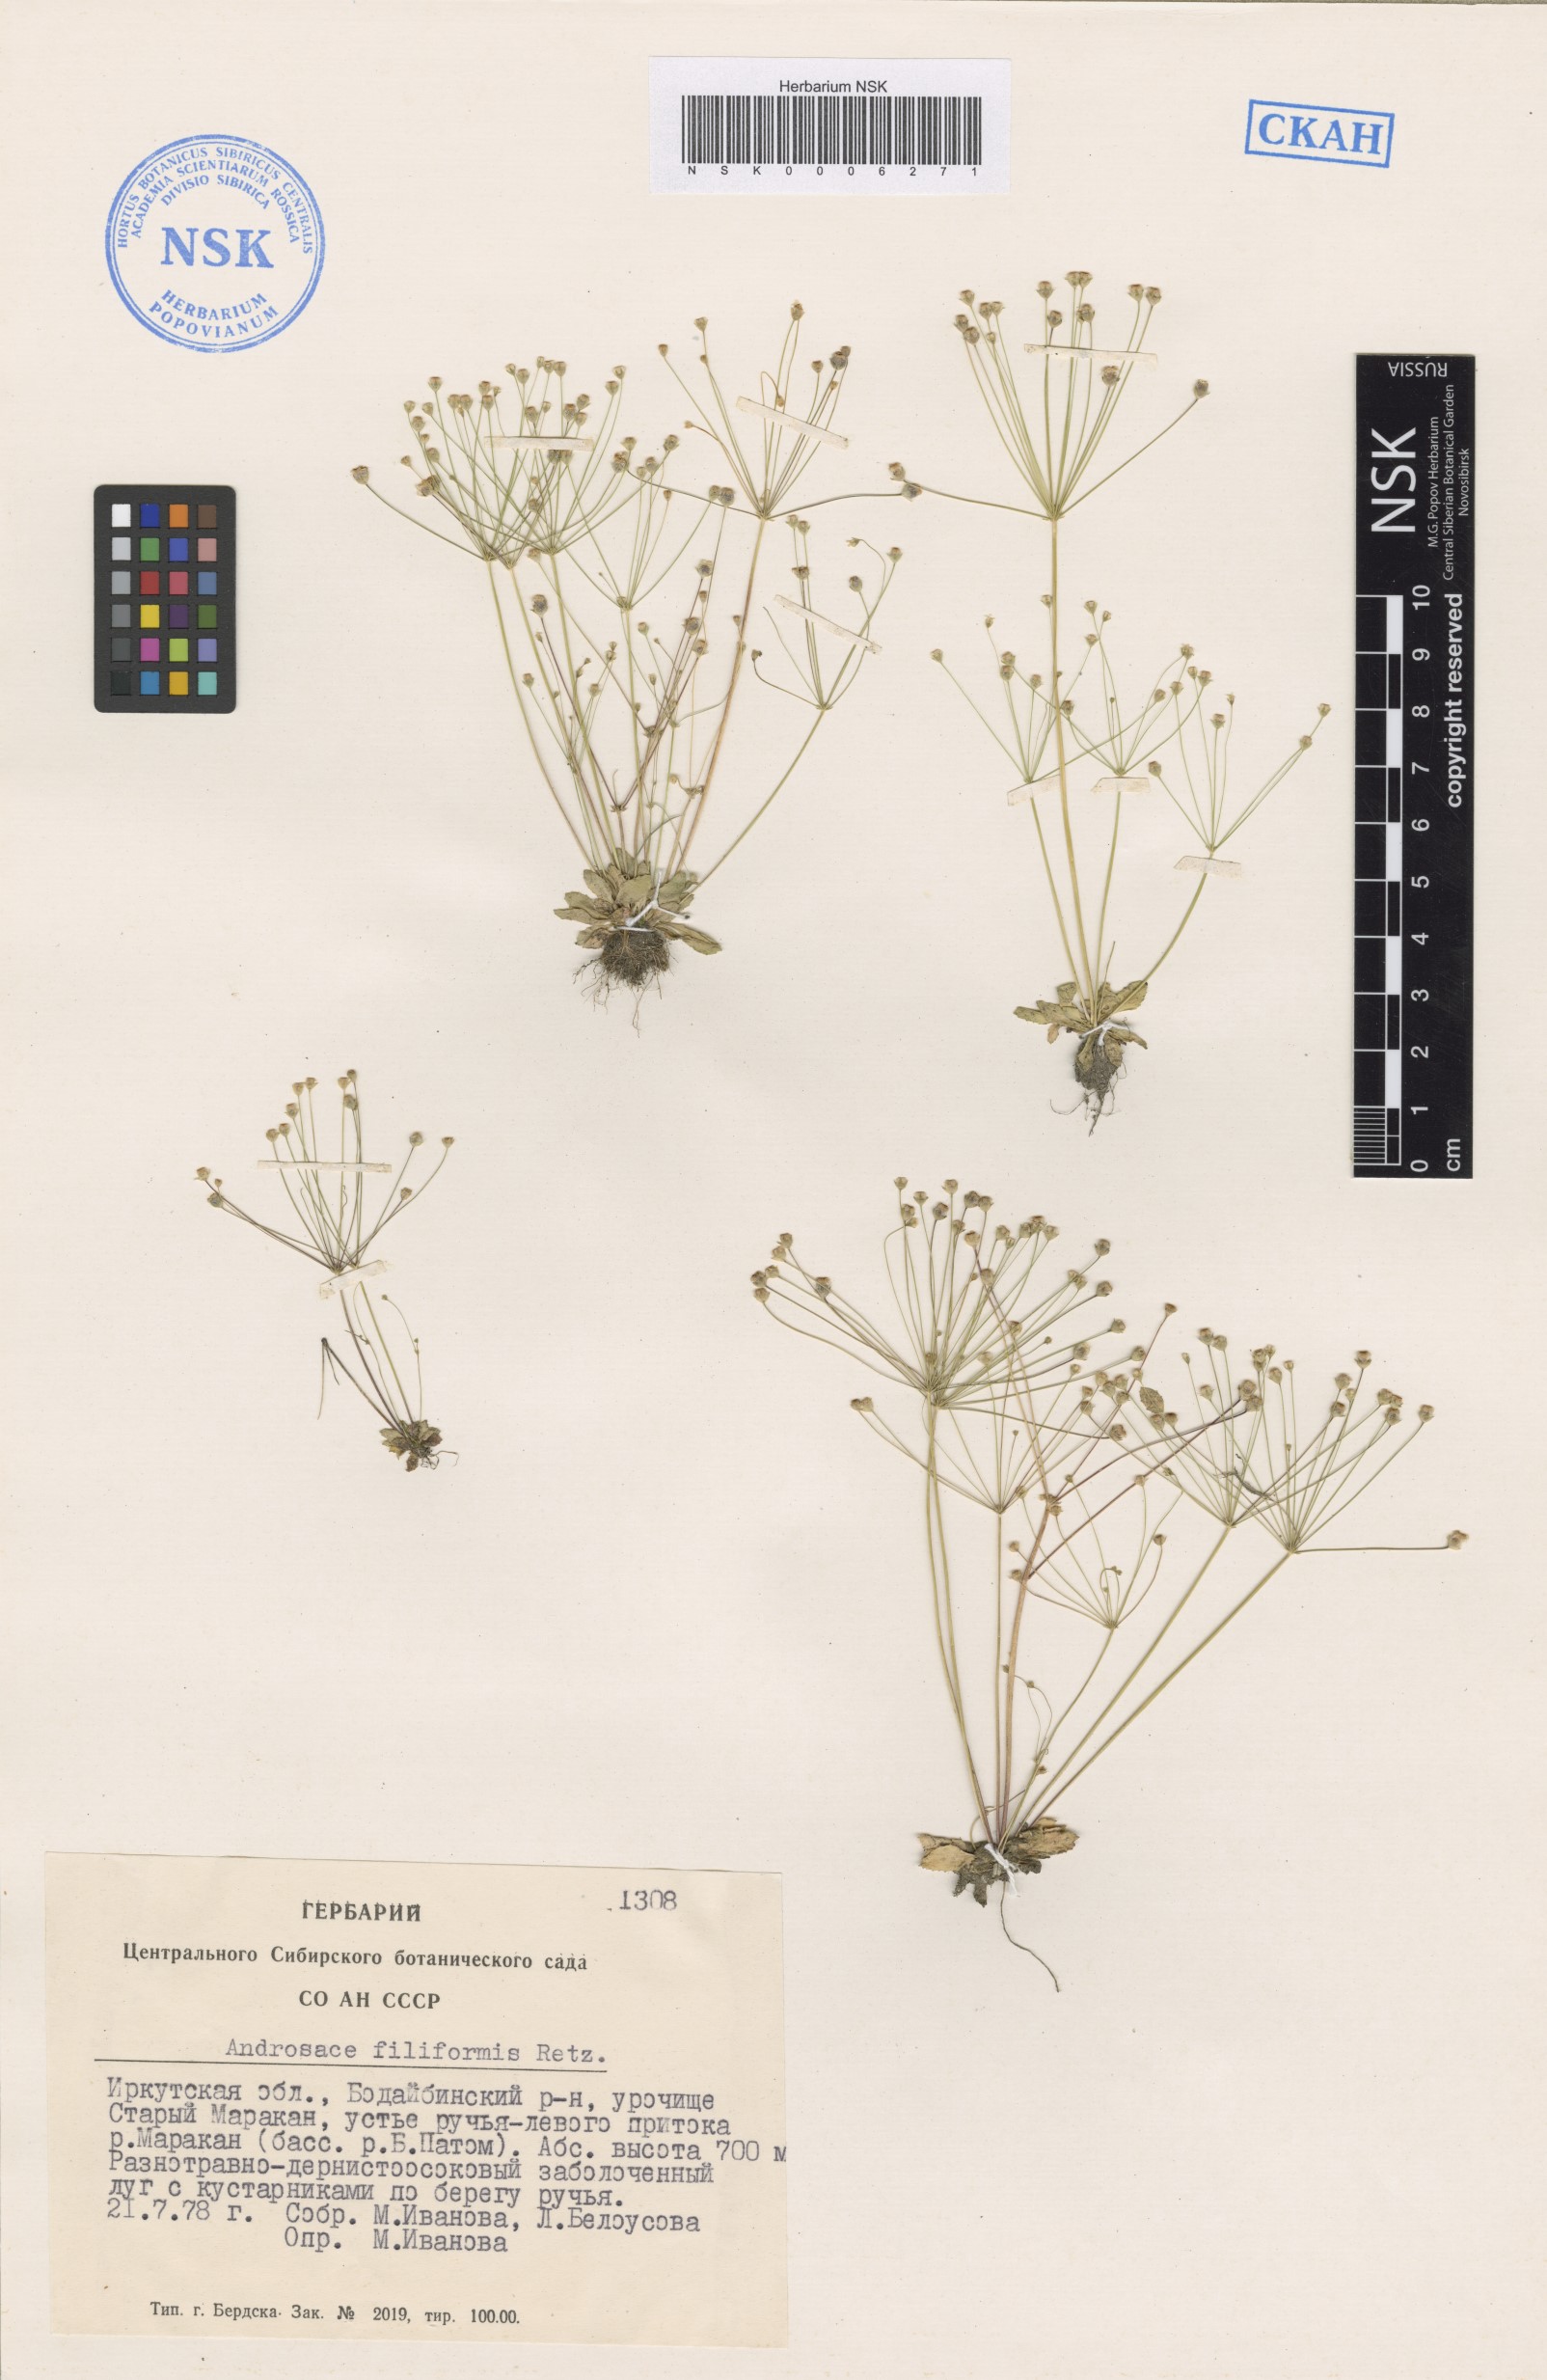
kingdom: Plantae
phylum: Tracheophyta
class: Magnoliopsida
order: Ericales
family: Primulaceae
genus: Androsace
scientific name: Androsace filiformis
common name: Filiform rock jasmine
